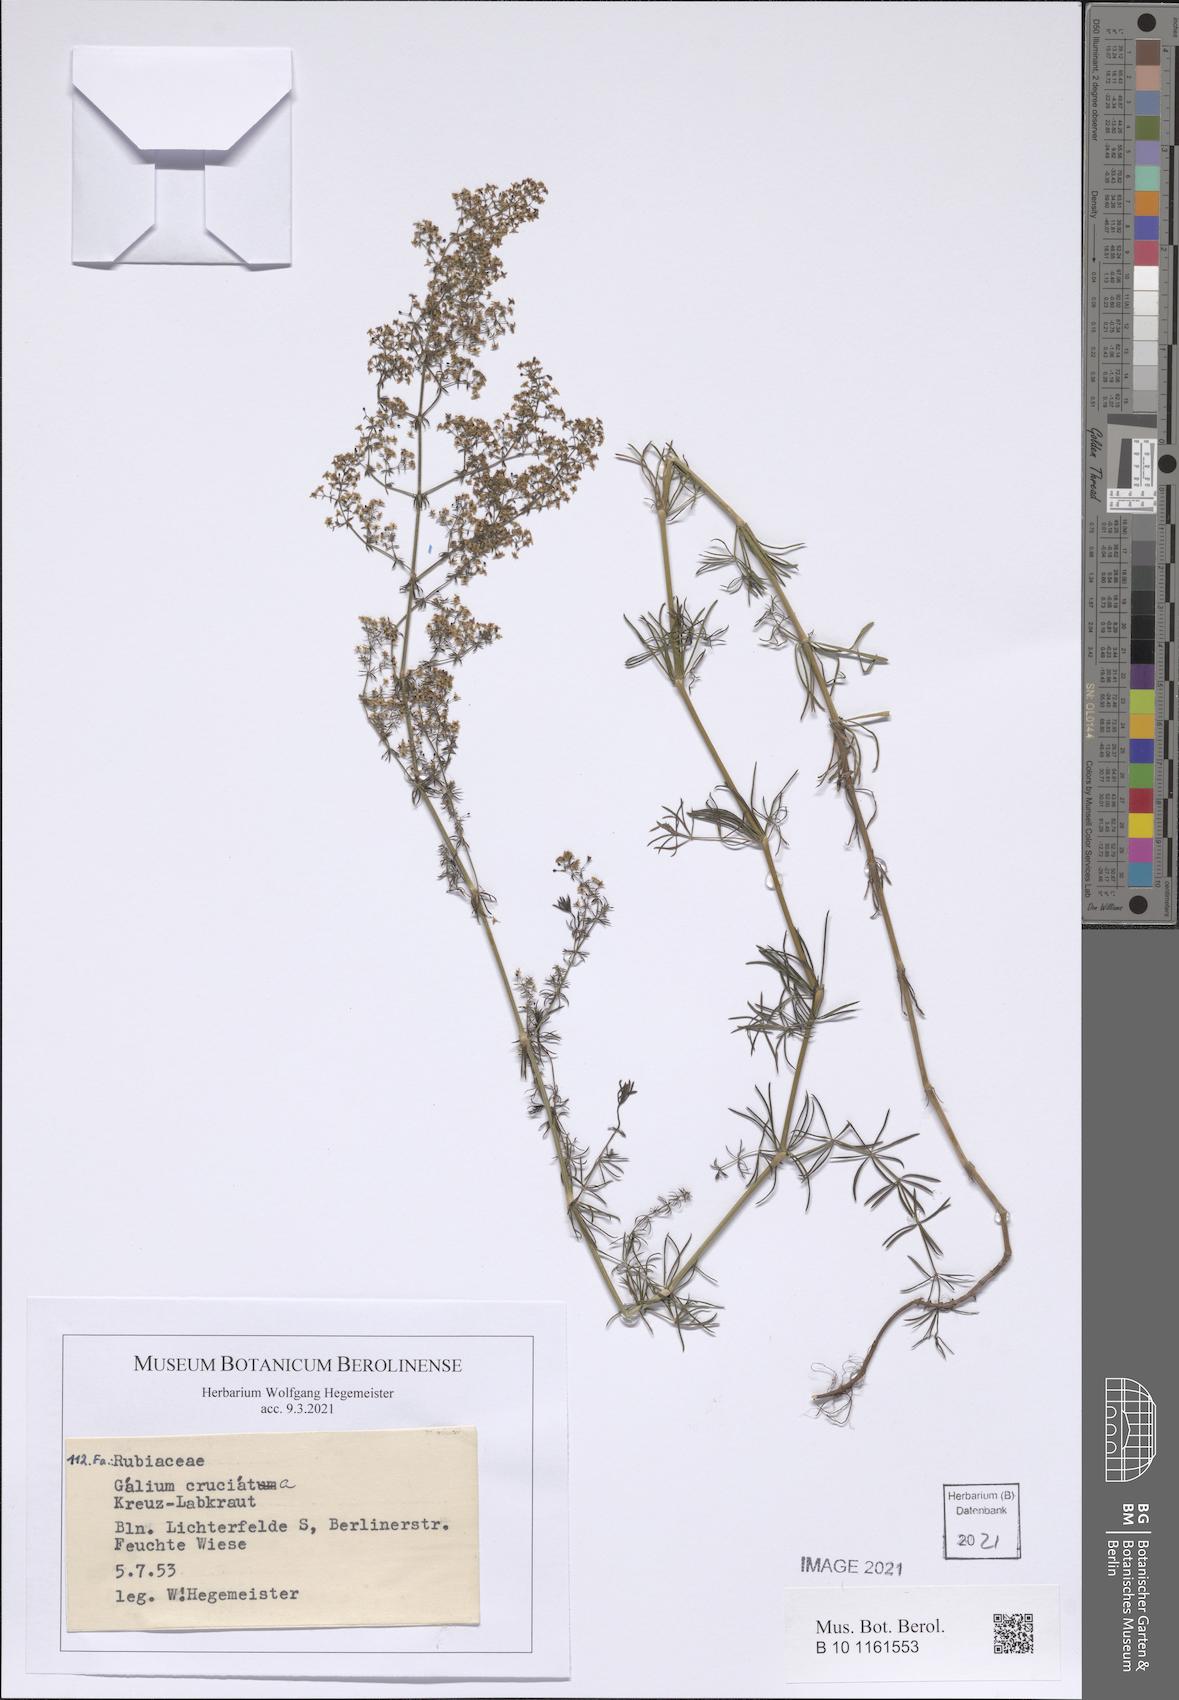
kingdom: Plantae
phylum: Tracheophyta
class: Magnoliopsida
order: Gentianales
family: Rubiaceae
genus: Cruciata
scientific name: Cruciata laevipes
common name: Crosswort
